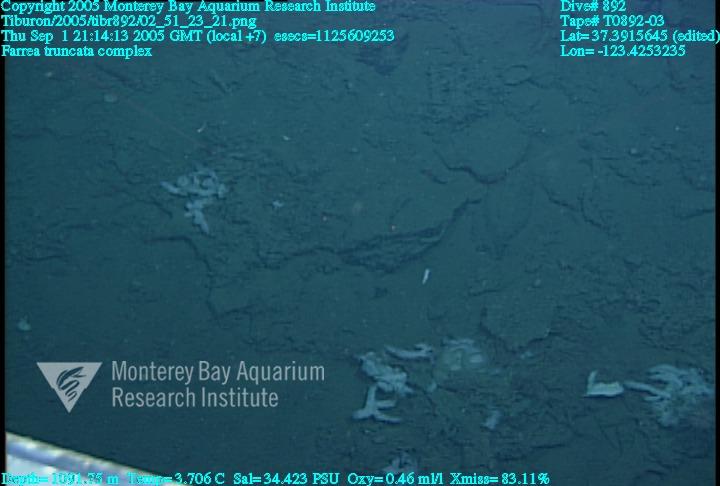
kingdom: Animalia
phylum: Porifera
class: Hexactinellida
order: Sceptrulophora
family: Farreidae
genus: Farrea
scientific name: Farrea truncata
